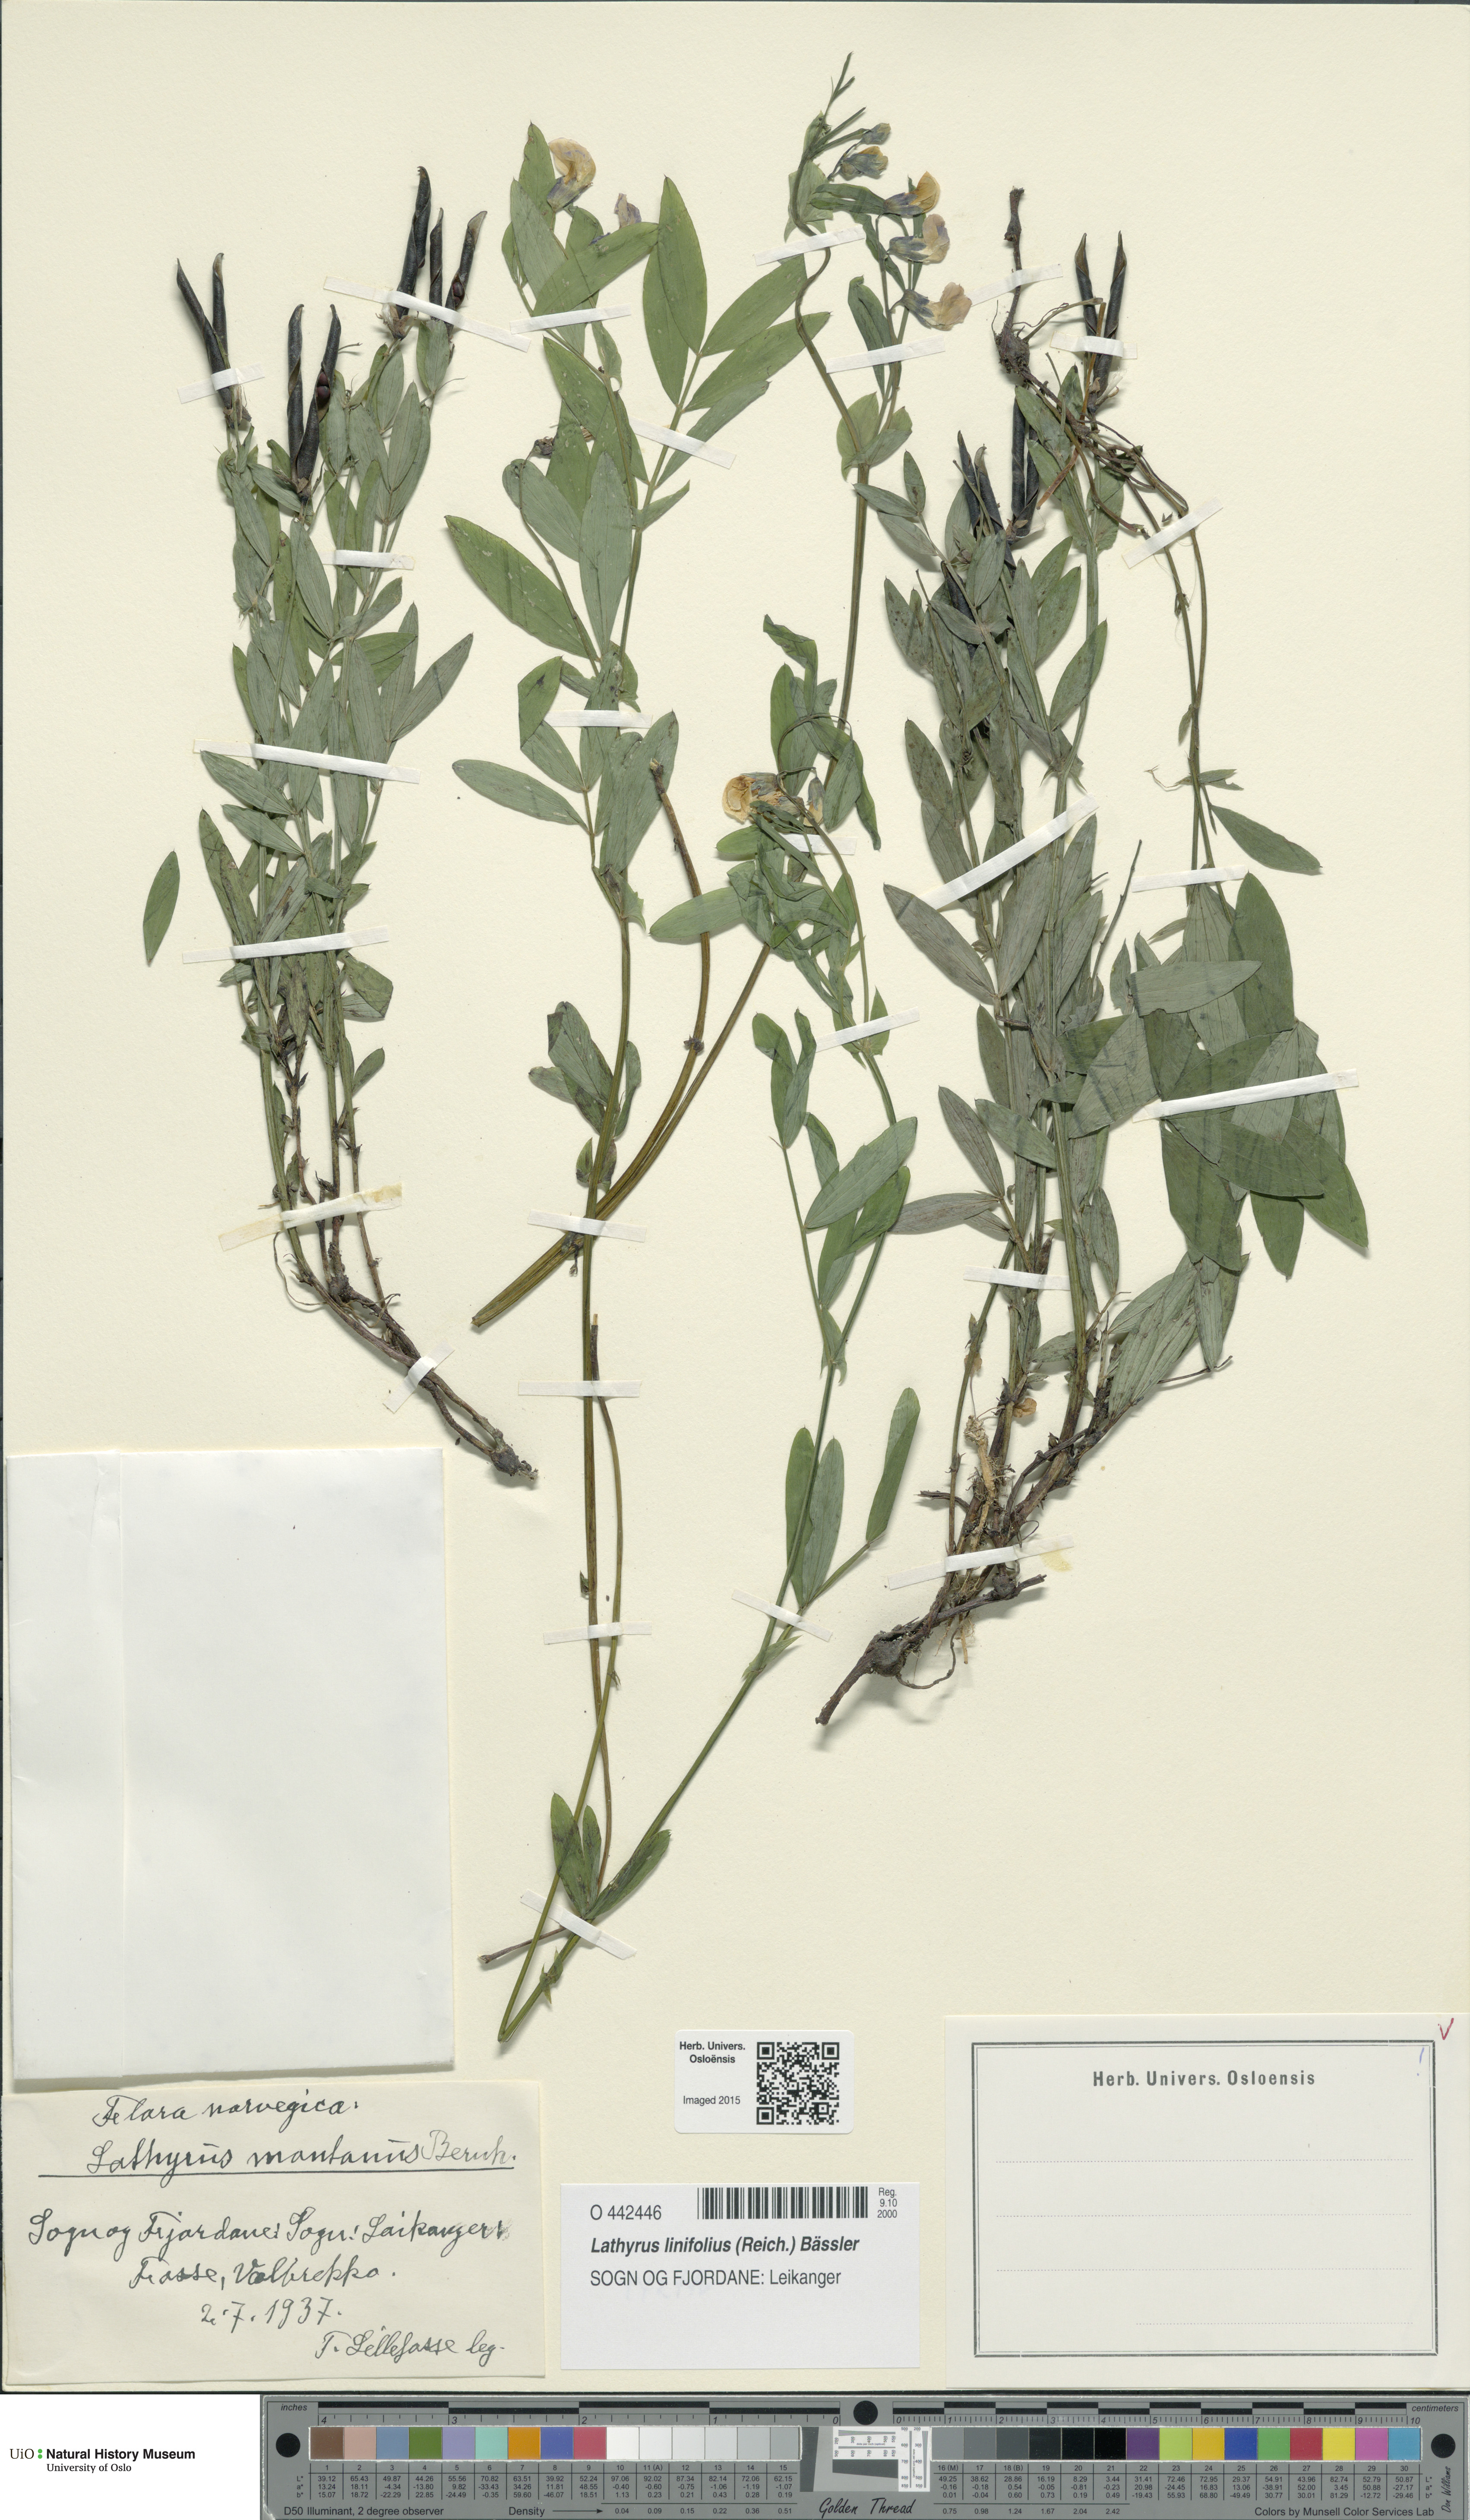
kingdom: Plantae
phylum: Tracheophyta
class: Magnoliopsida
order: Fabales
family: Fabaceae
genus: Lathyrus
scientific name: Lathyrus linifolius
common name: Bitter-vetch
